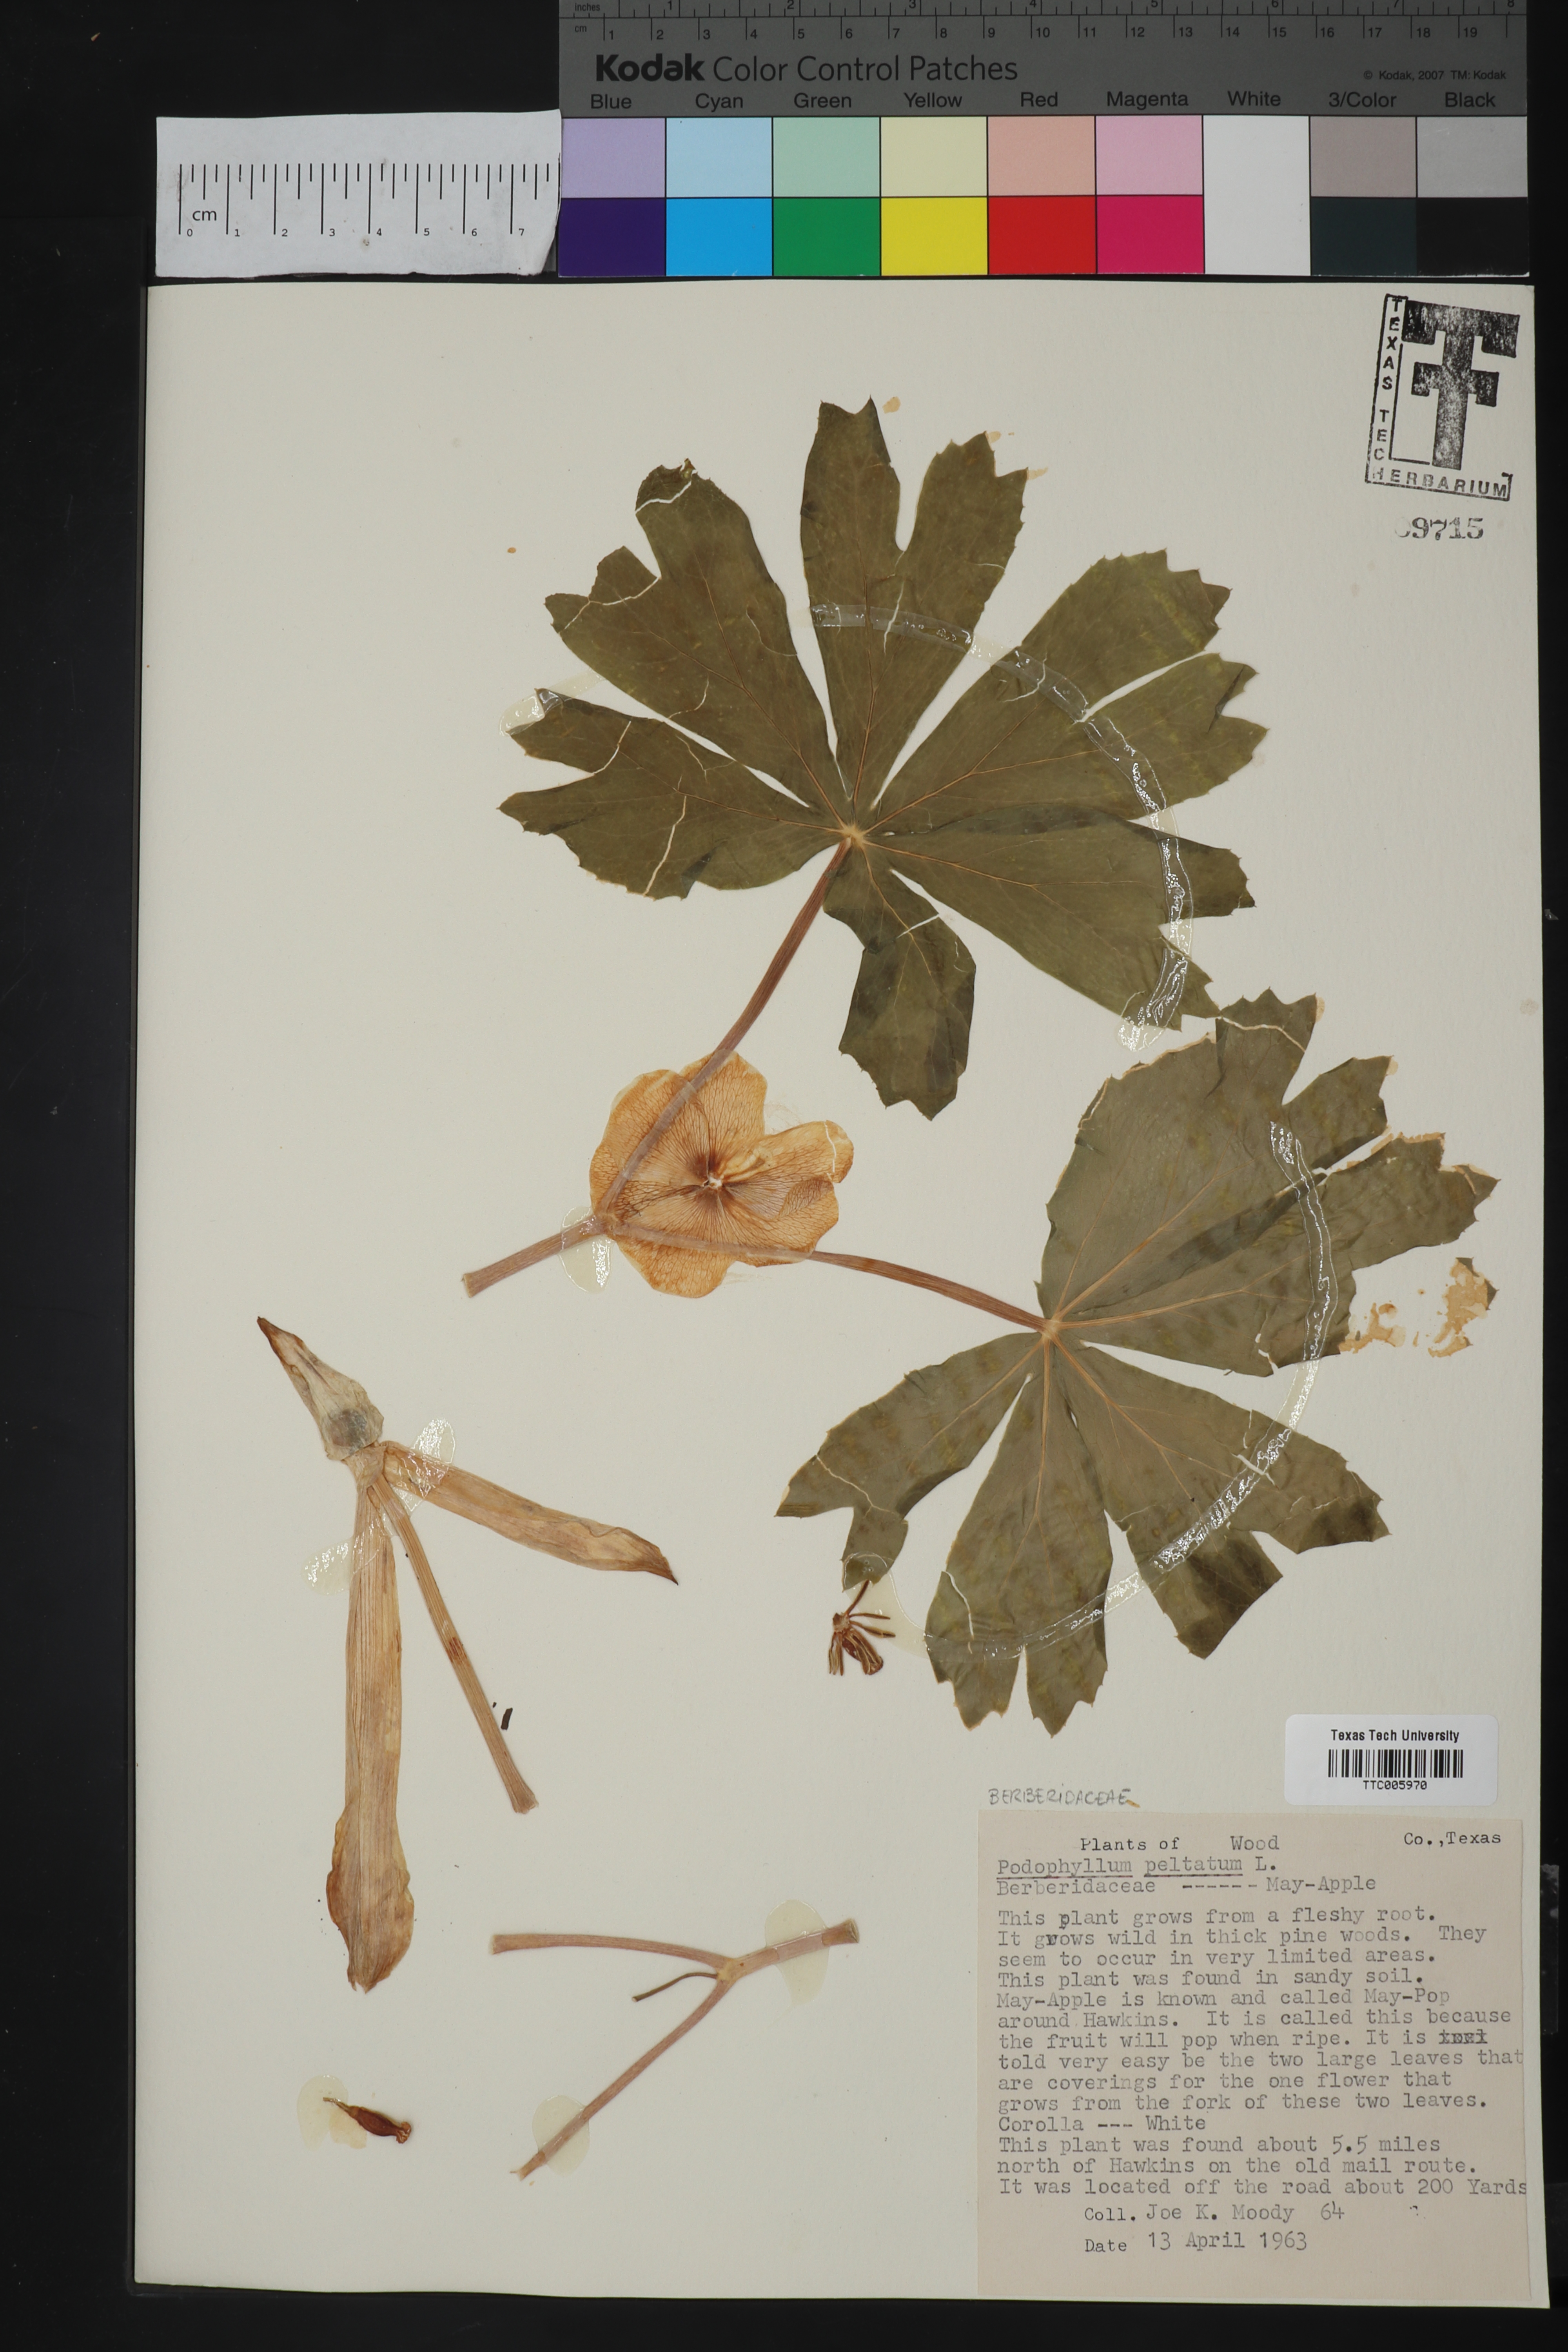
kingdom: Plantae
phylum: Tracheophyta
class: Magnoliopsida
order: Ranunculales
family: Berberidaceae
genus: Podophyllum
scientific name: Podophyllum peltatum
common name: Wild mandrake
